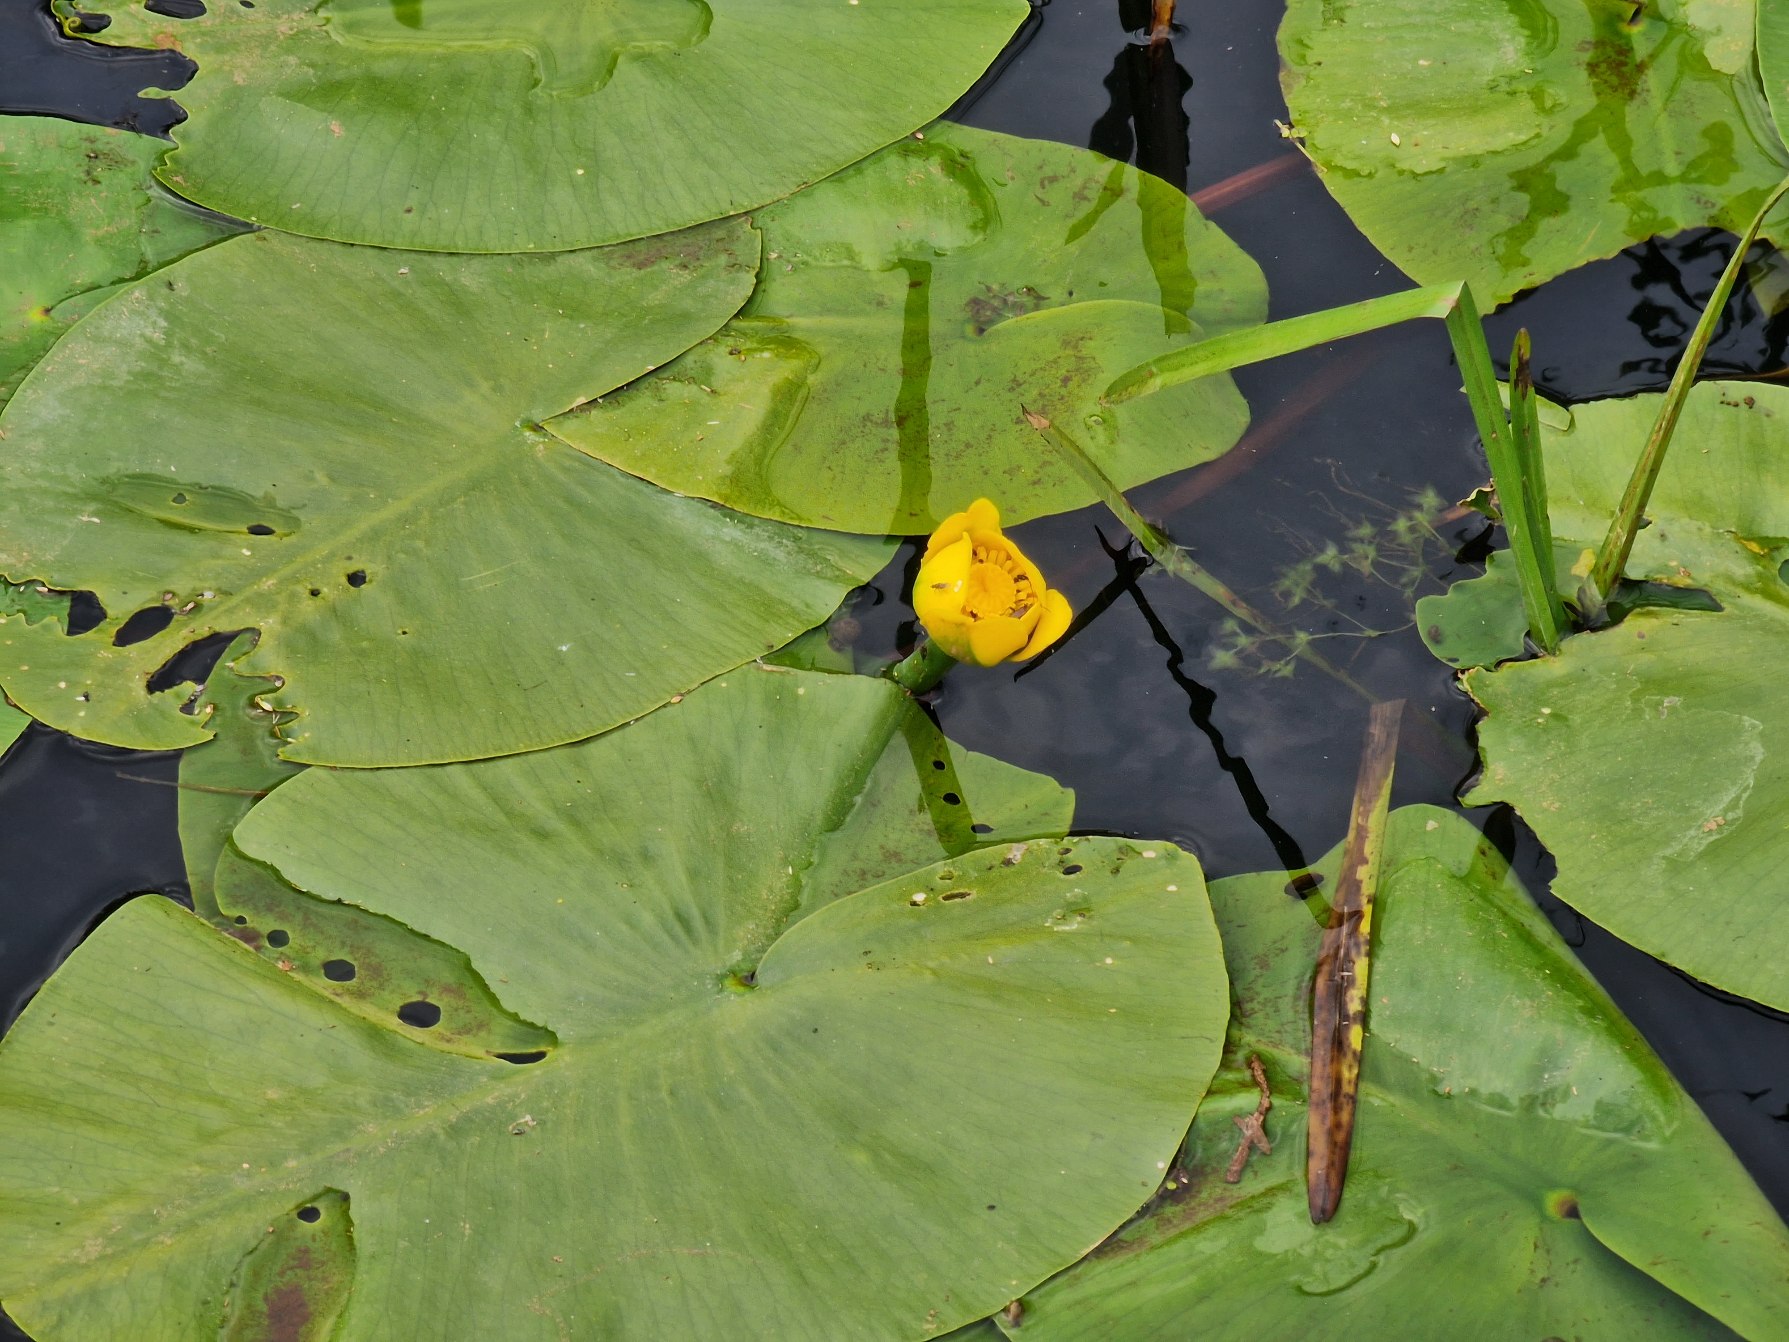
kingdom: Plantae
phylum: Tracheophyta
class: Magnoliopsida
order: Nymphaeales
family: Nymphaeaceae
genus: Nuphar
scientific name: Nuphar lutea
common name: Gul åkande
